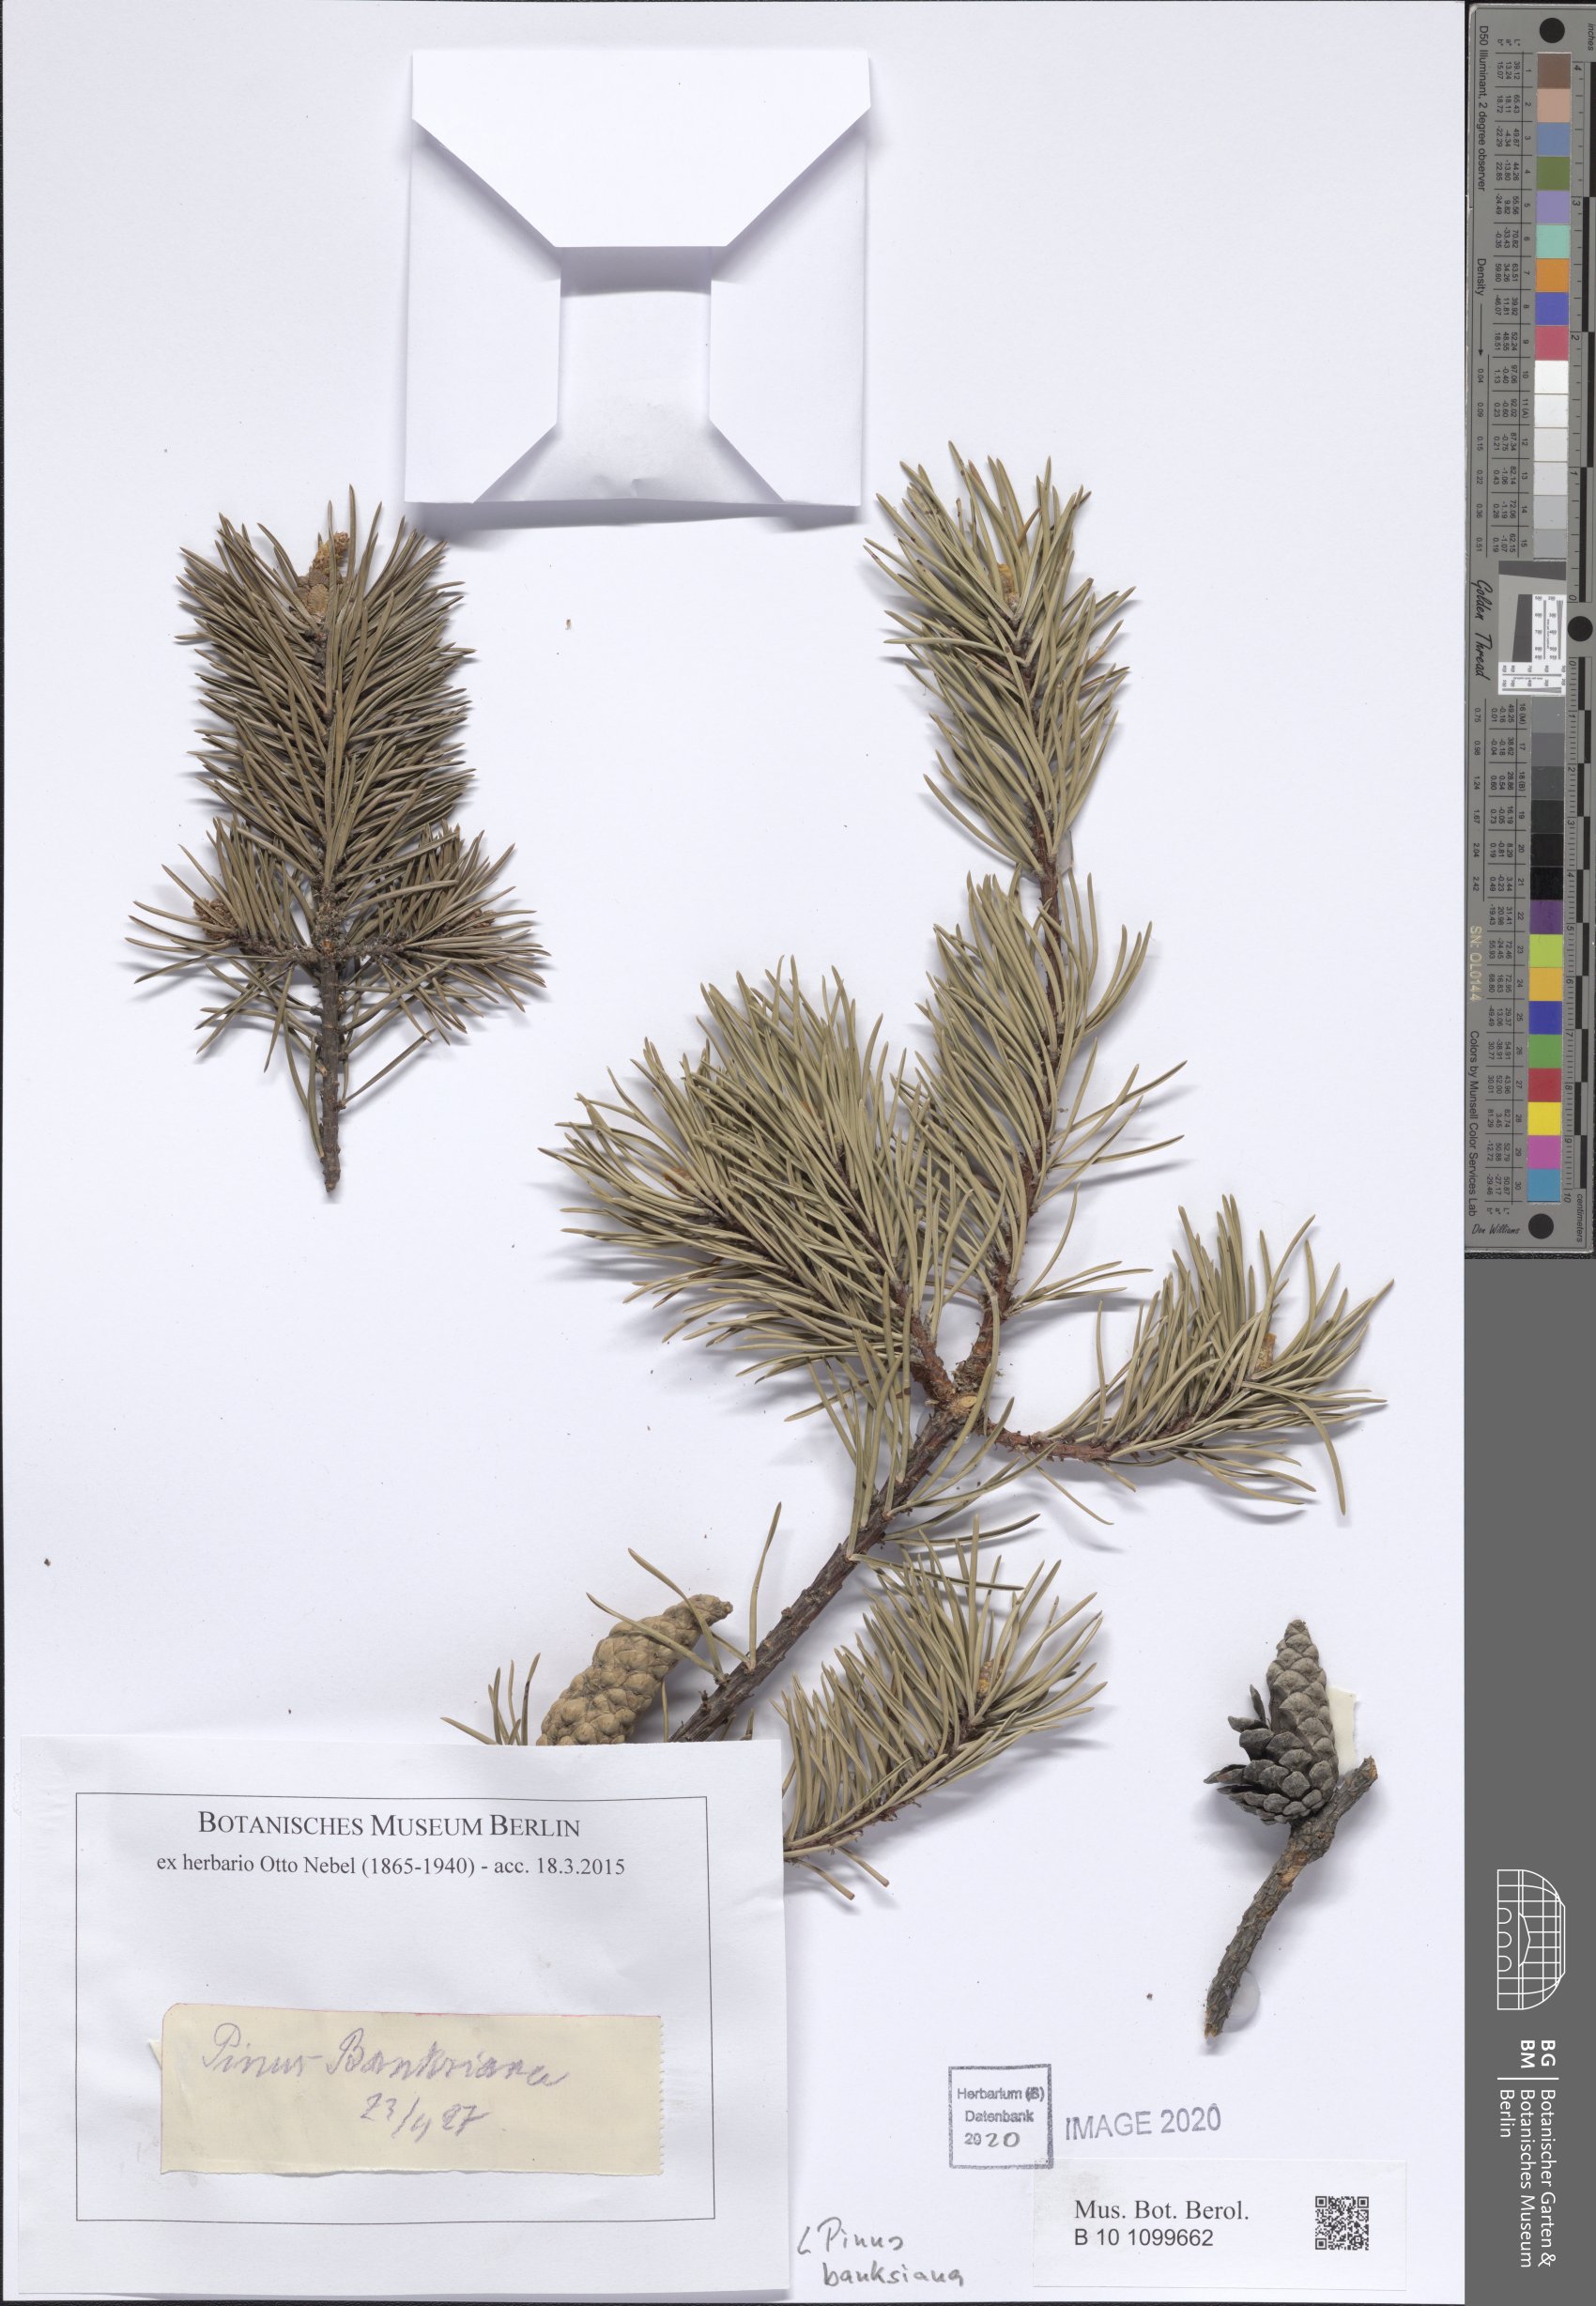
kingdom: Plantae
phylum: Tracheophyta
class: Pinopsida
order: Pinales
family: Pinaceae
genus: Pinus
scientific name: Pinus banksiana
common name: Jack pine
